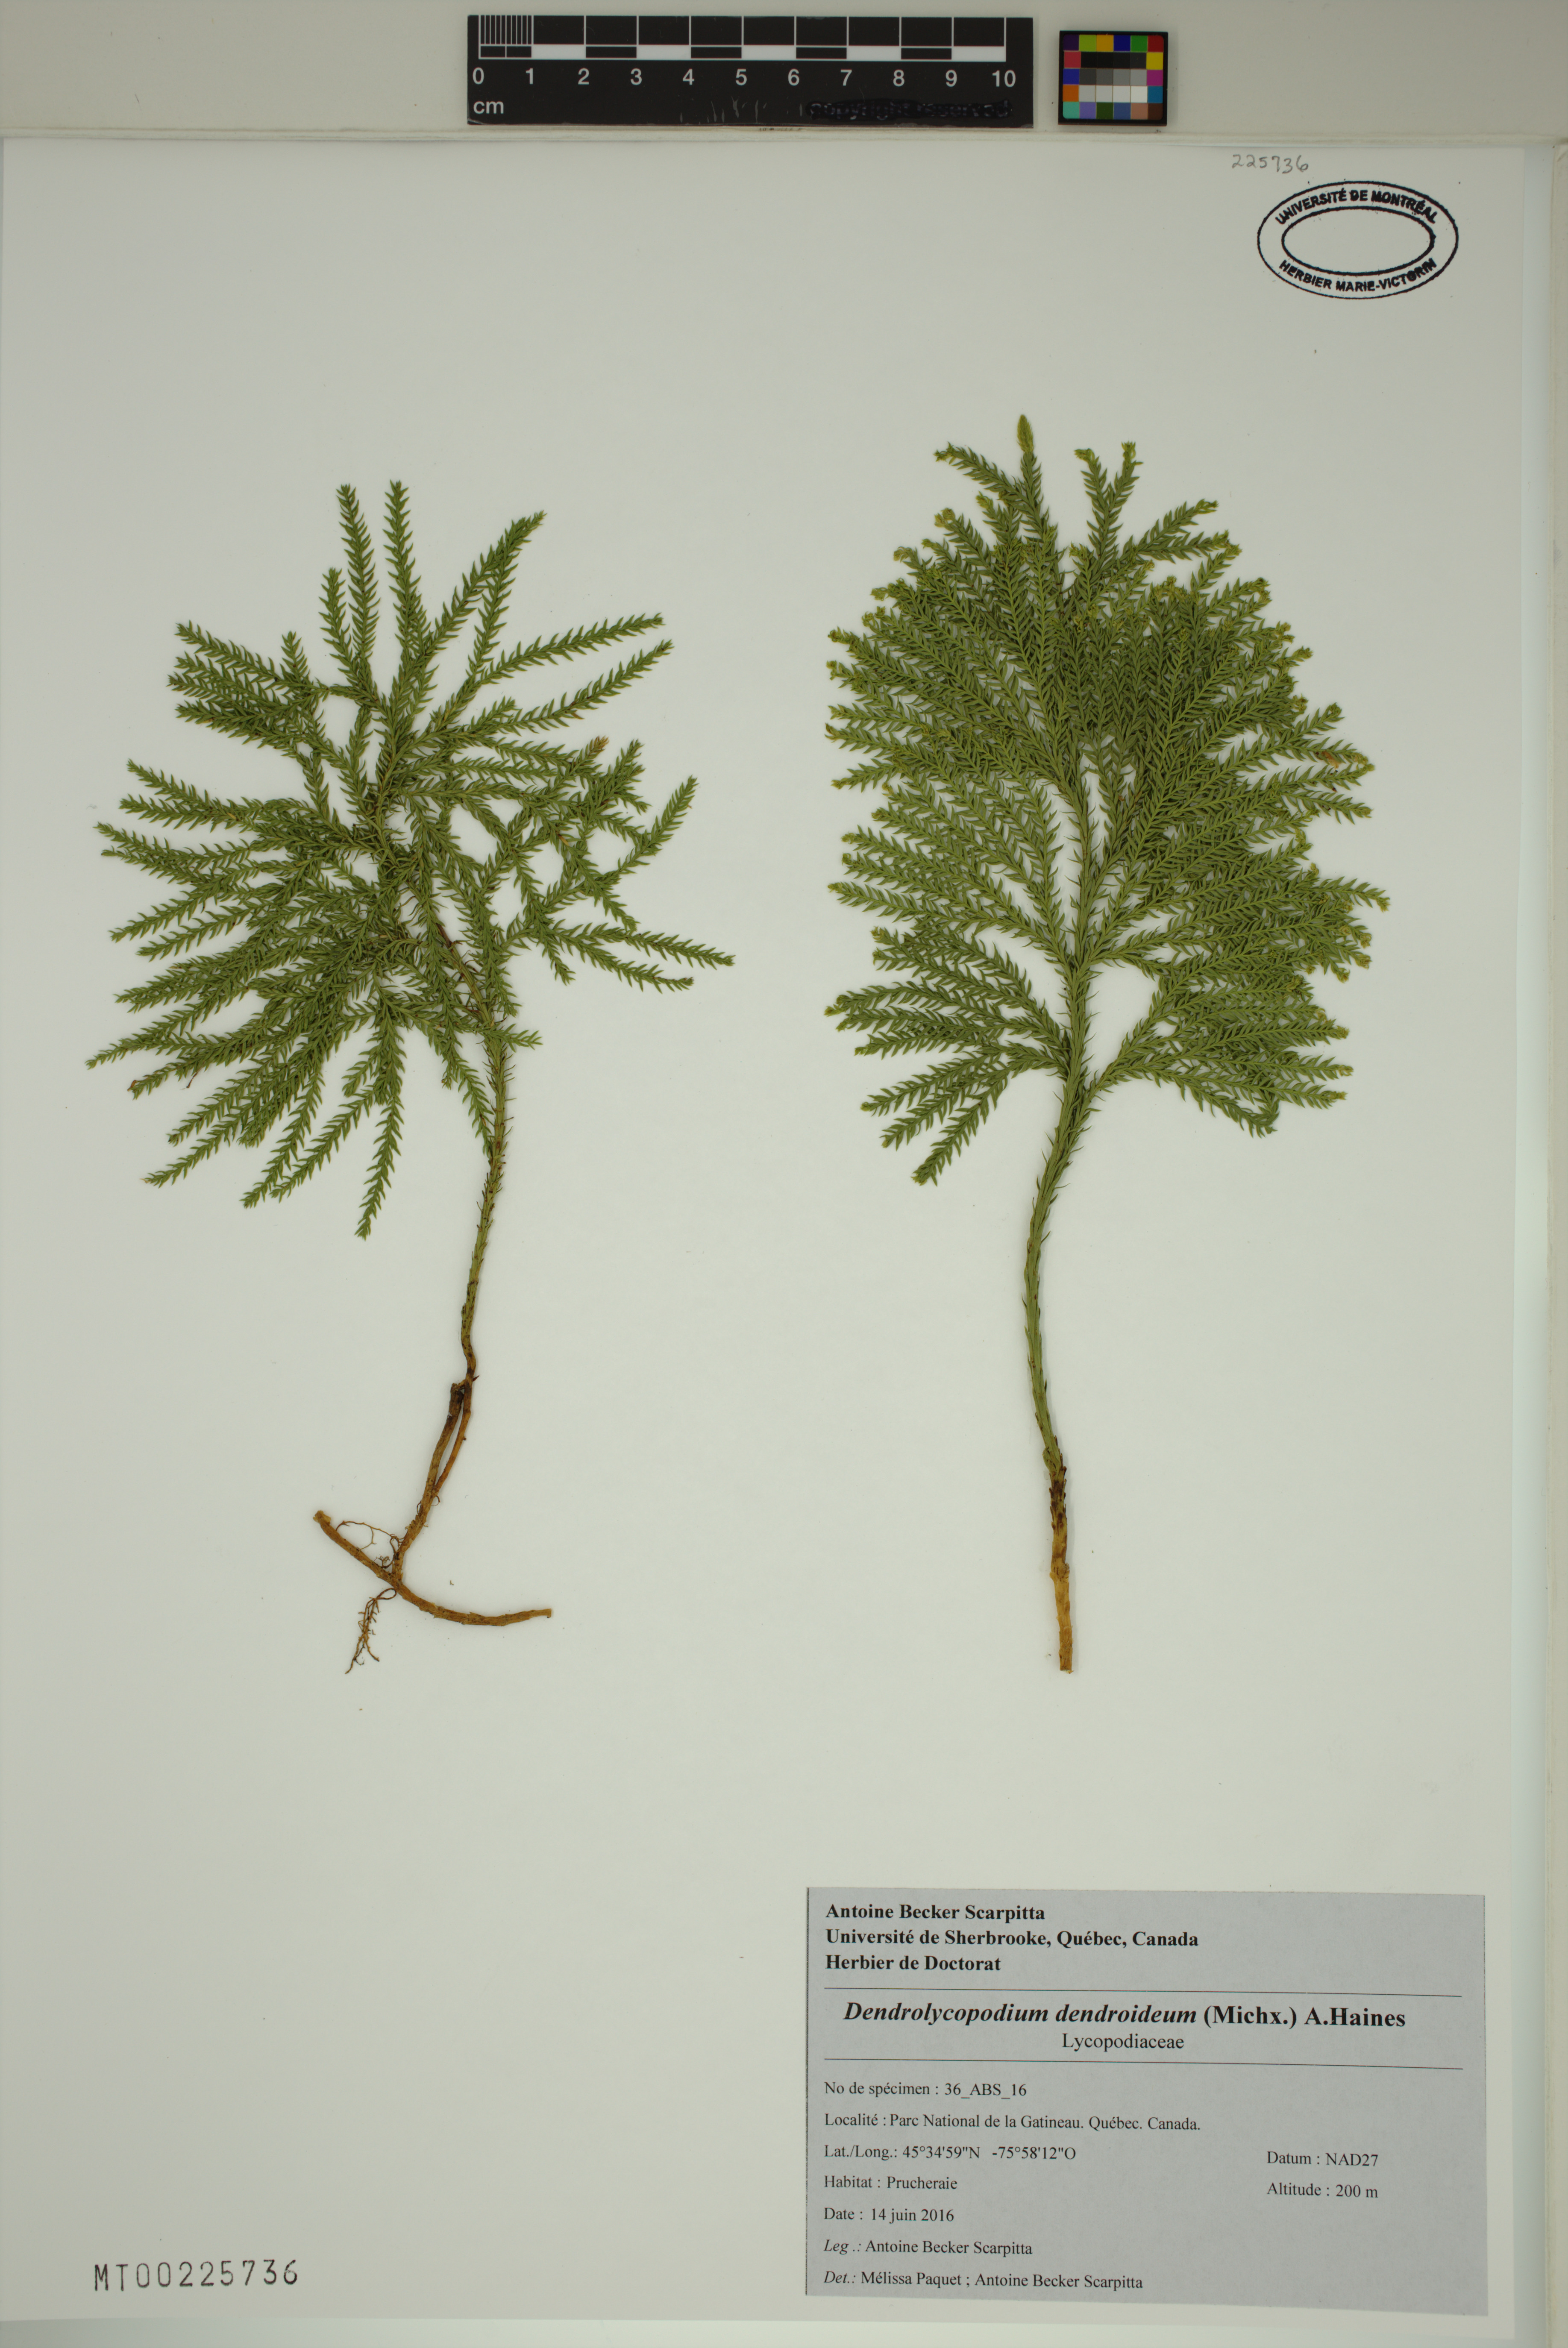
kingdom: Plantae
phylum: Tracheophyta
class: Lycopodiopsida
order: Lycopodiales
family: Lycopodiaceae
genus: Dendrolycopodium
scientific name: Dendrolycopodium dendroideum
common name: Northern tree-clubmoss
